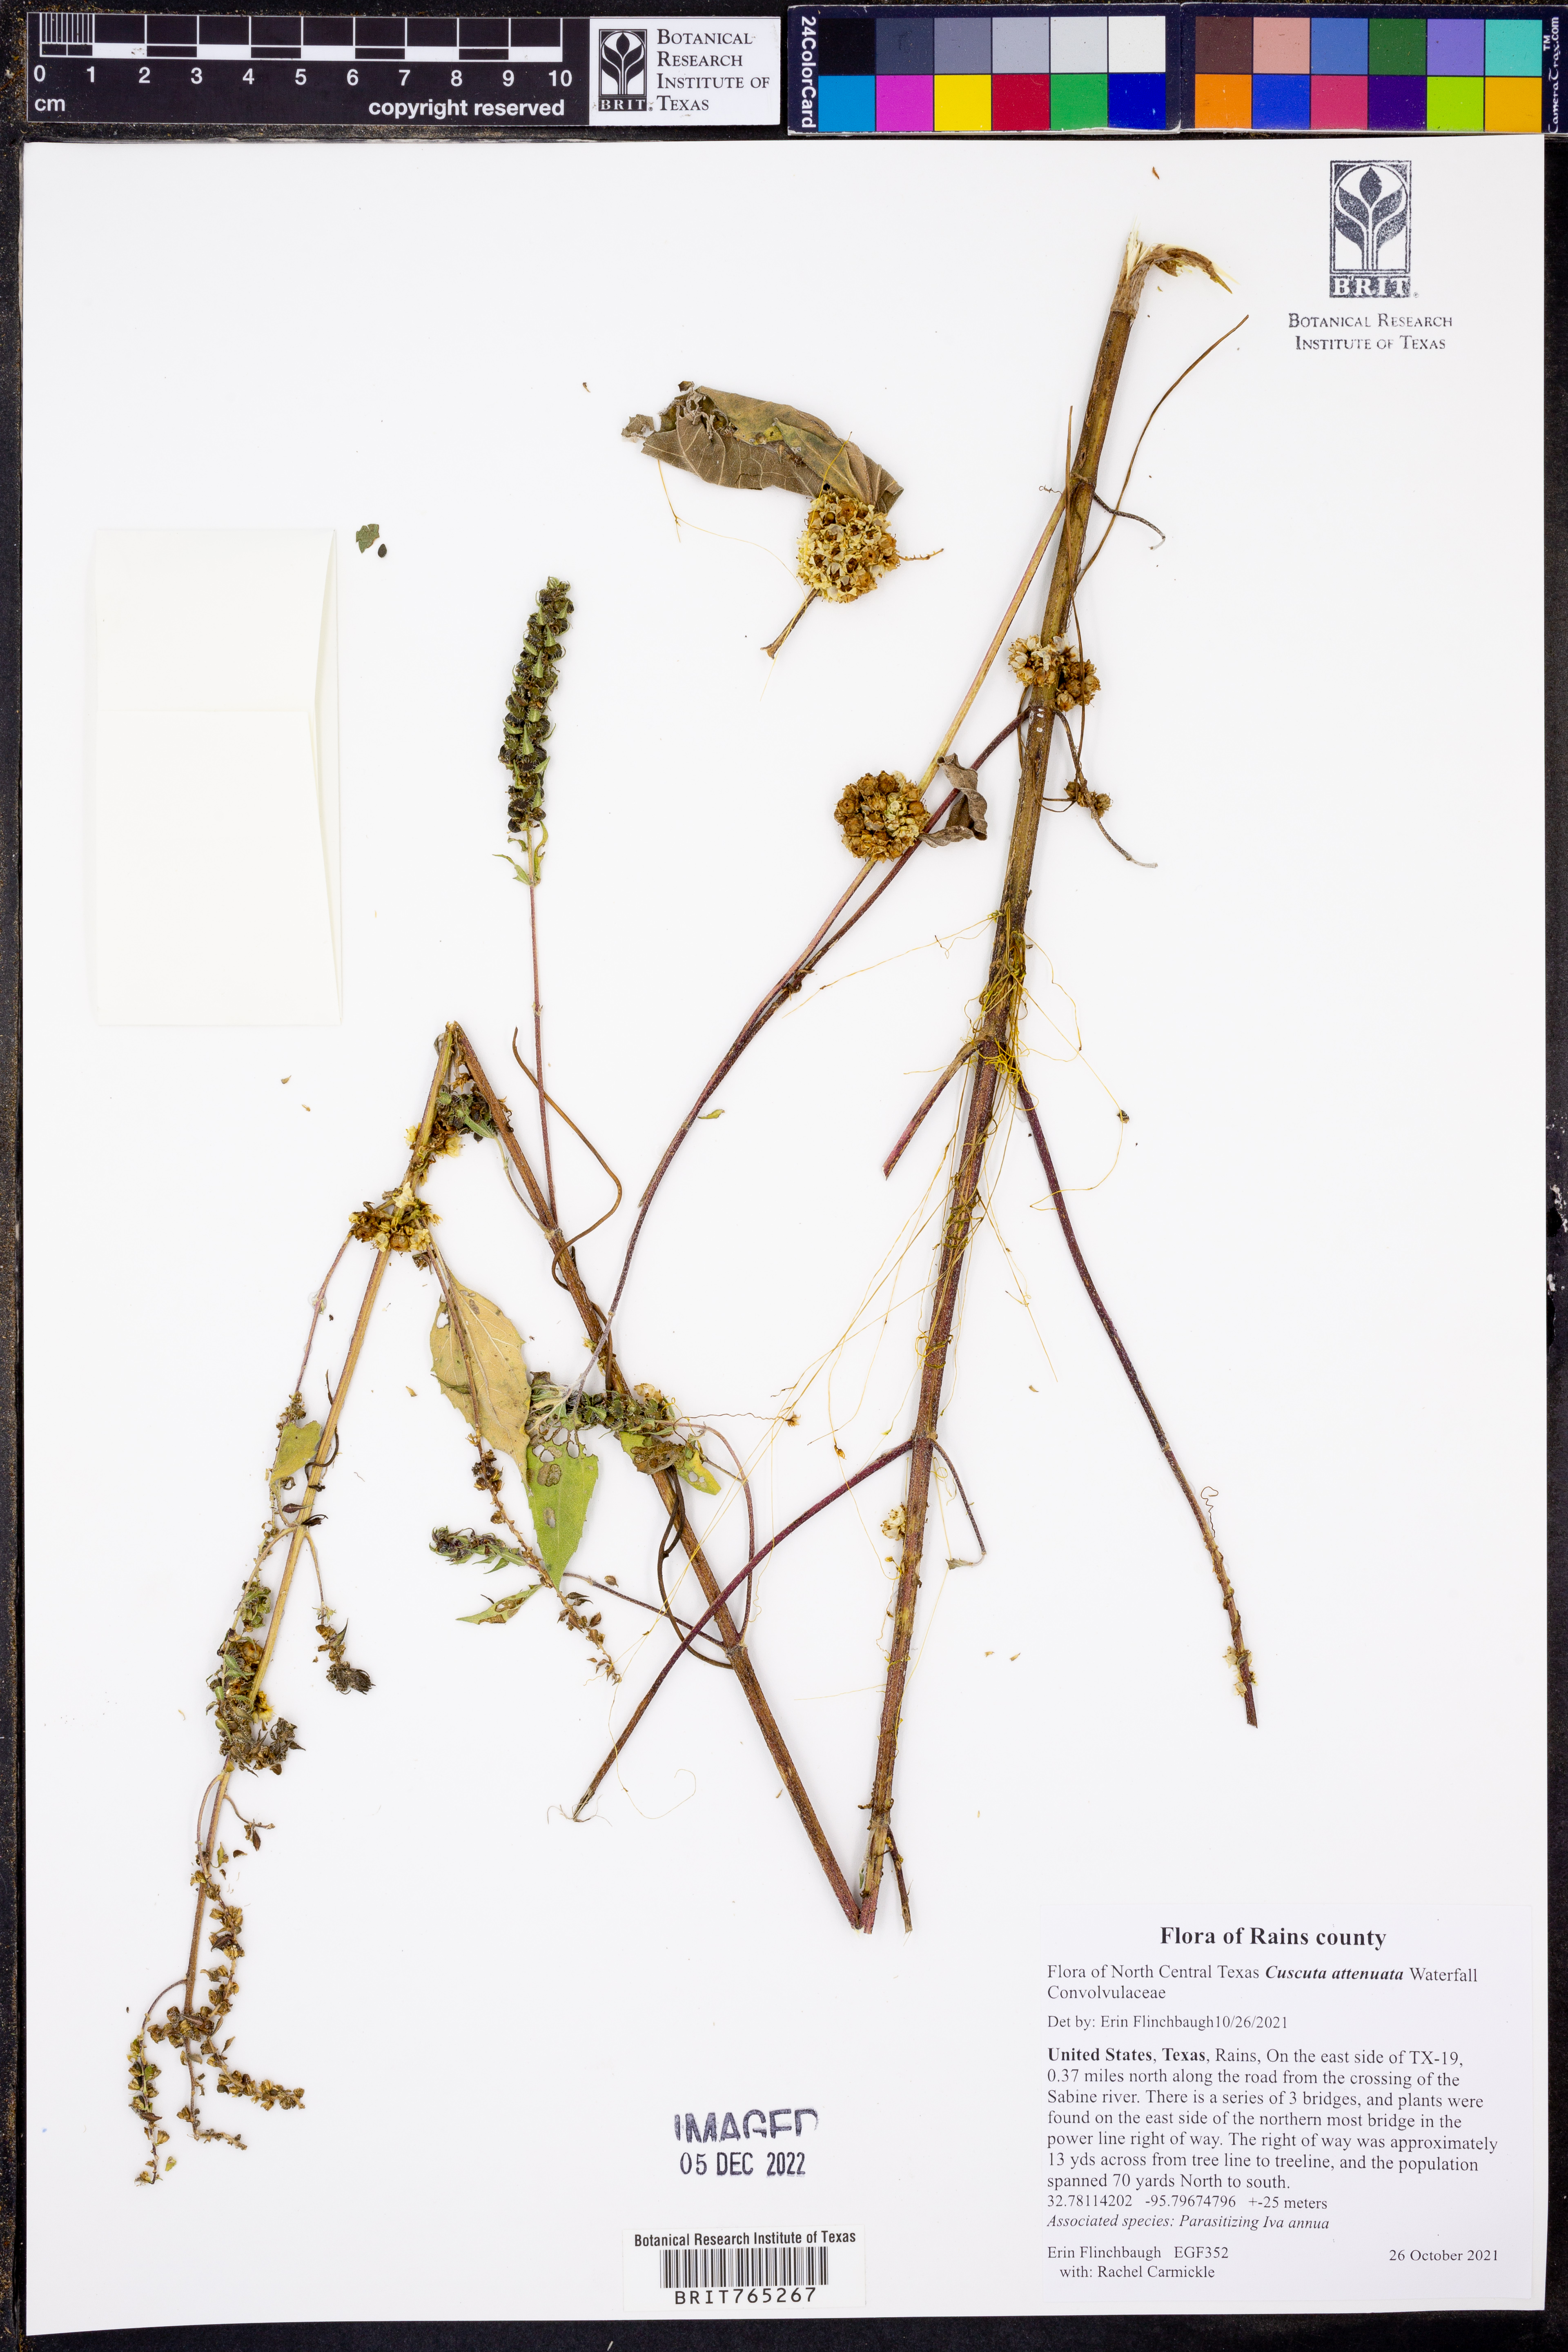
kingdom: Plantae
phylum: Tracheophyta
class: Magnoliopsida
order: Solanales
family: Convolvulaceae
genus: Cuscuta
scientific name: Cuscuta indecora
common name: Large-seed dodder
